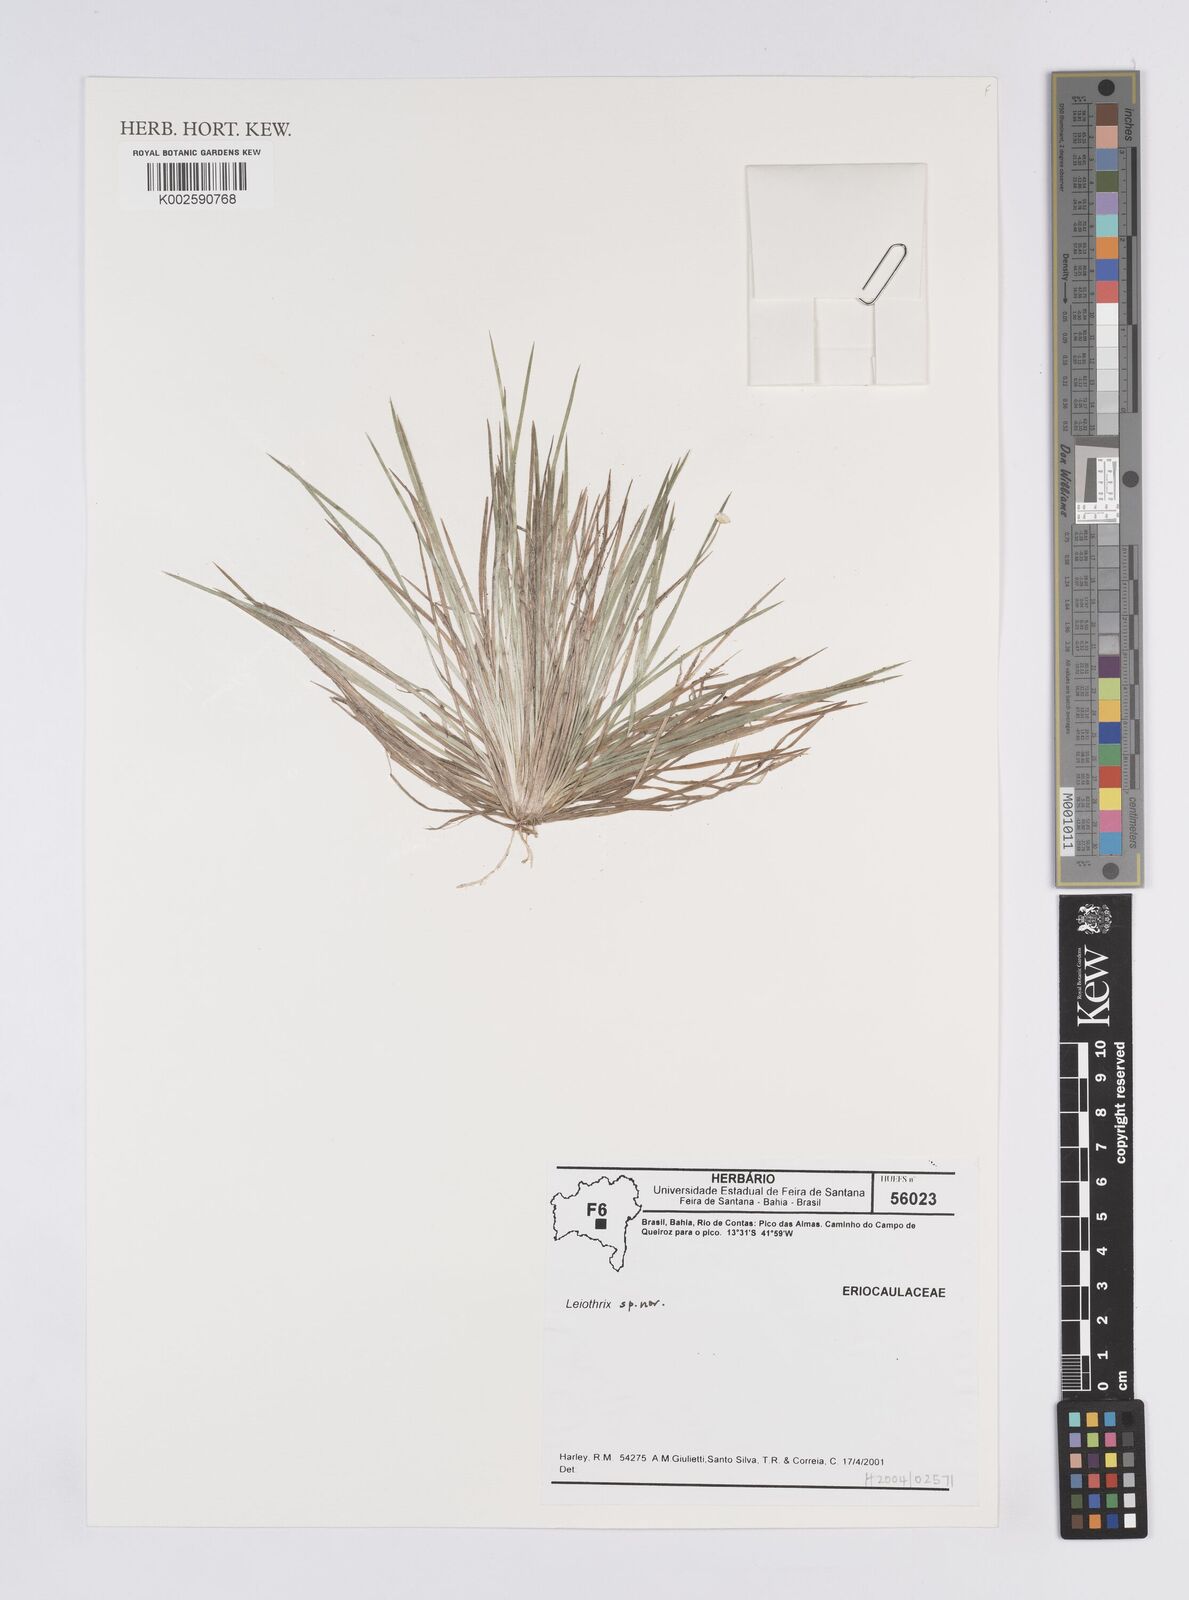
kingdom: Plantae
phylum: Tracheophyta
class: Liliopsida
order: Poales
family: Eriocaulaceae
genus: Leiothrix
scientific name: Leiothrix distichoclada
